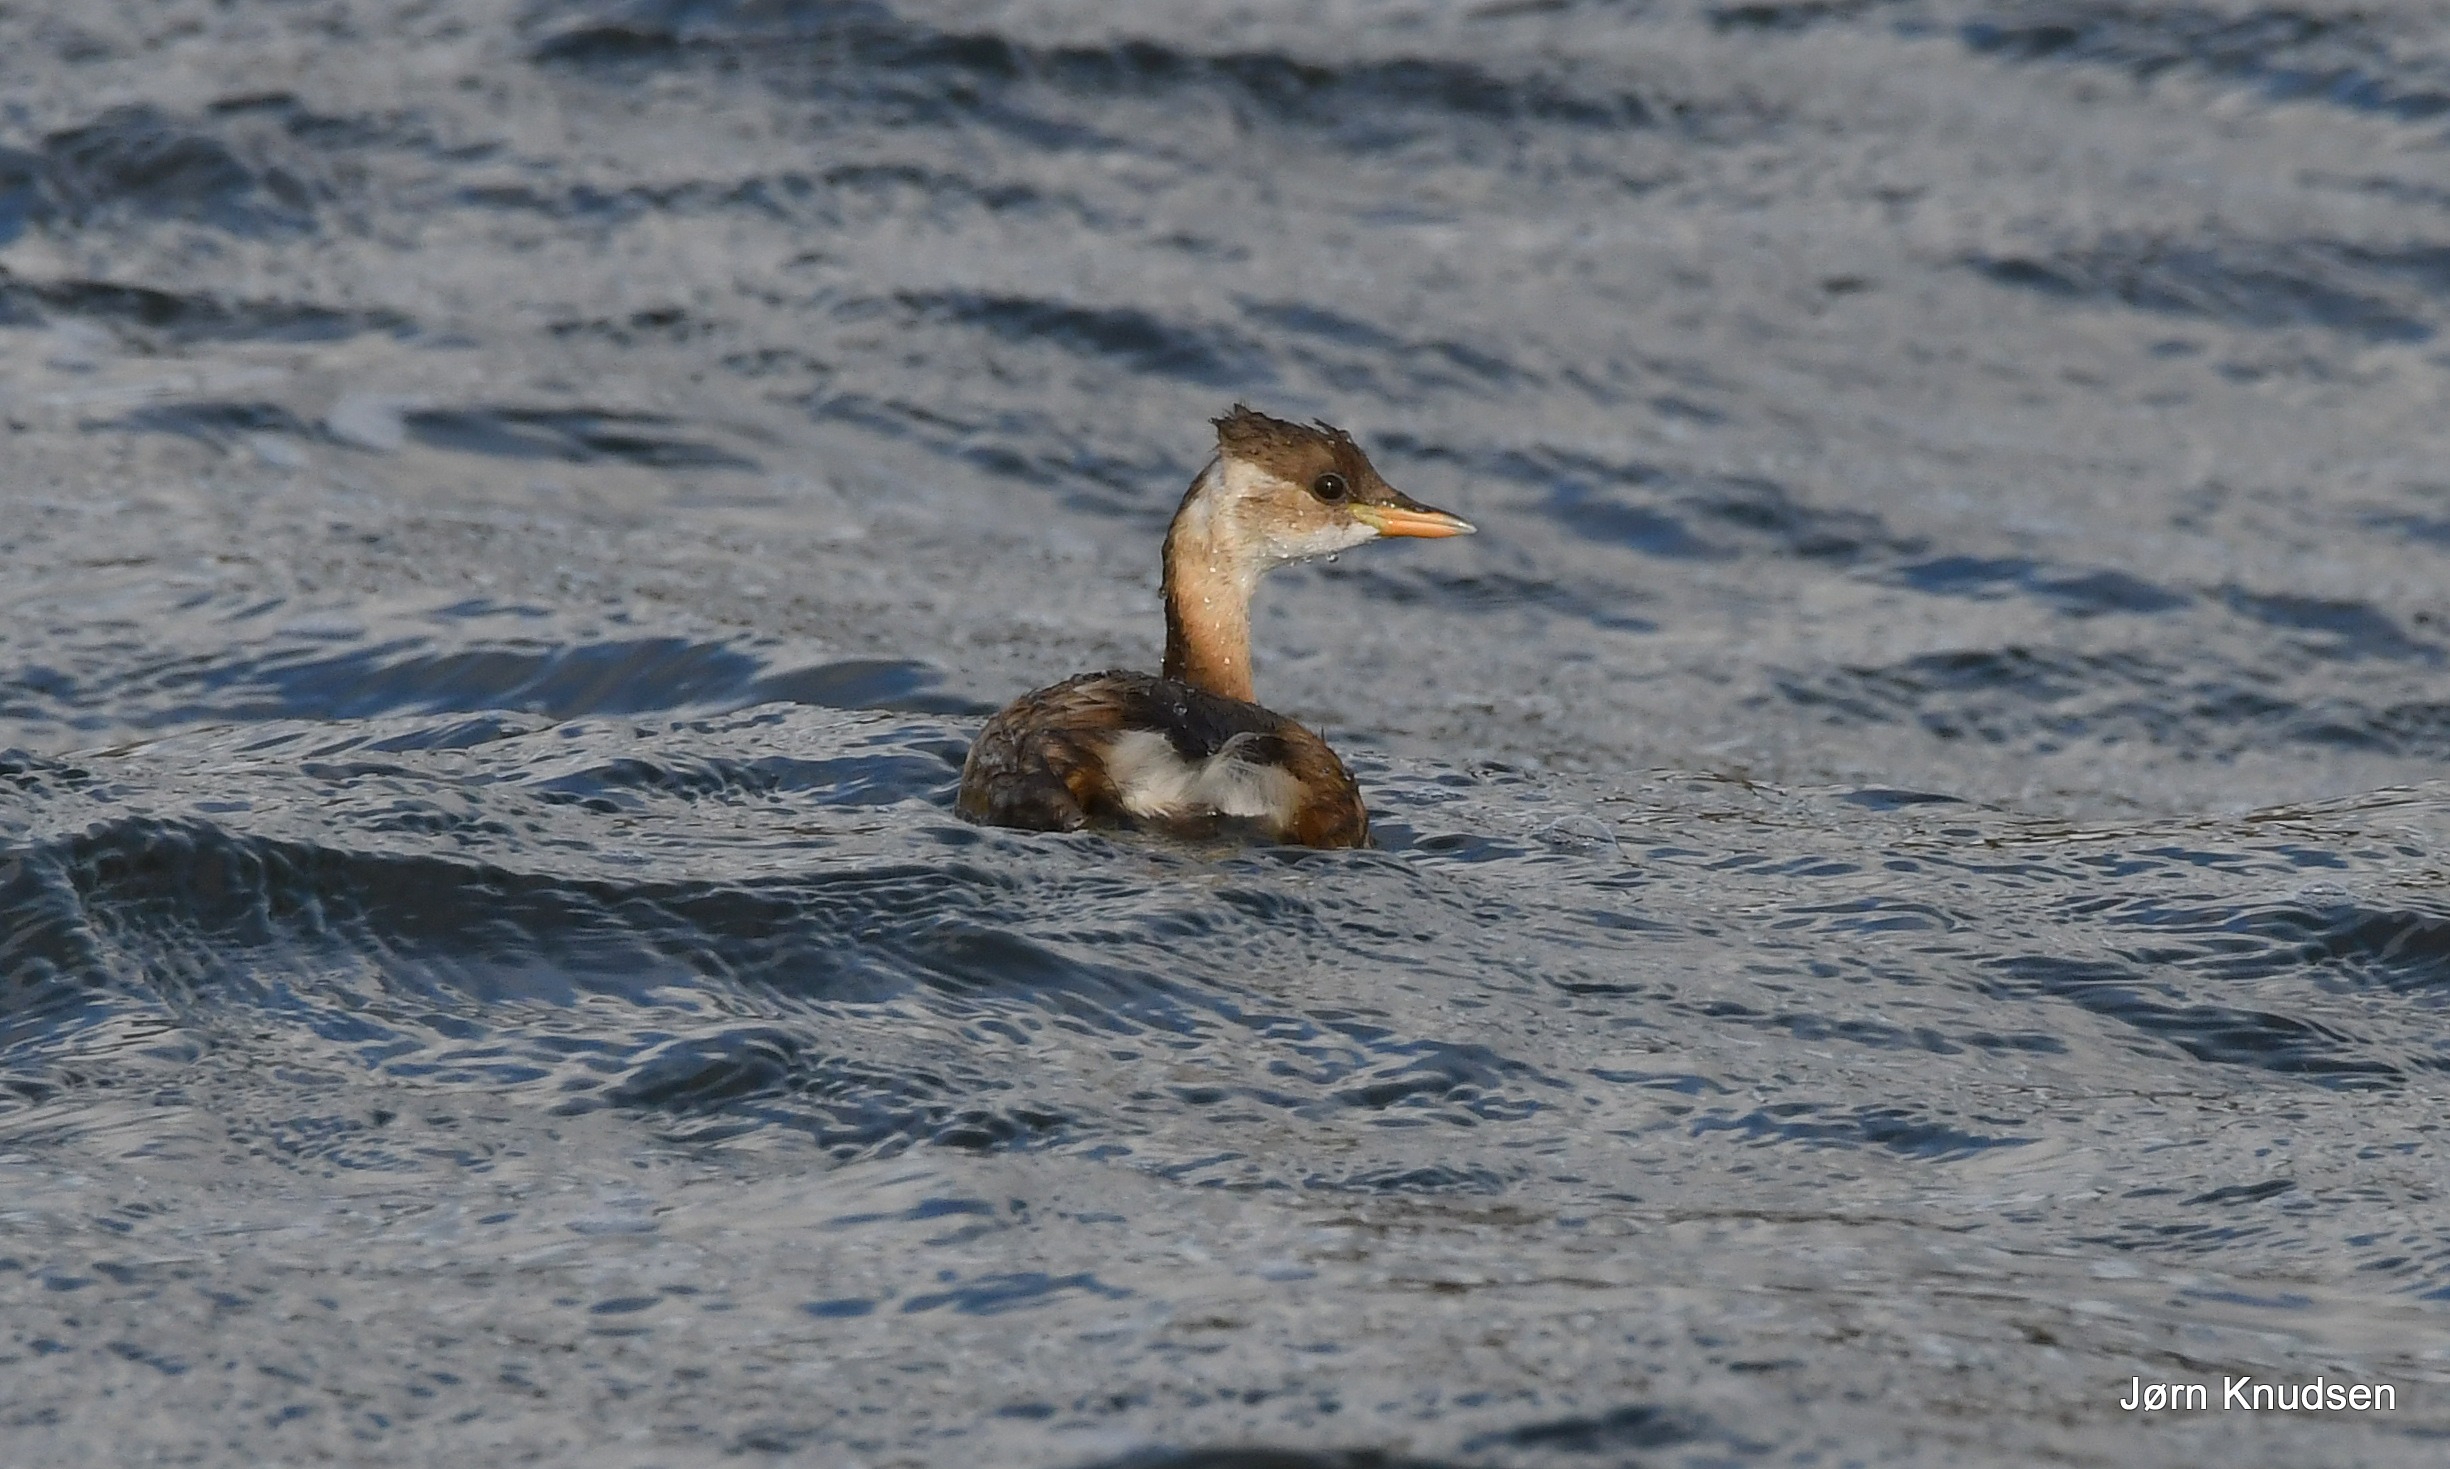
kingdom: Animalia
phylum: Chordata
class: Aves
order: Podicipediformes
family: Podicipedidae
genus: Tachybaptus
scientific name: Tachybaptus ruficollis
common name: Lille lappedykker
